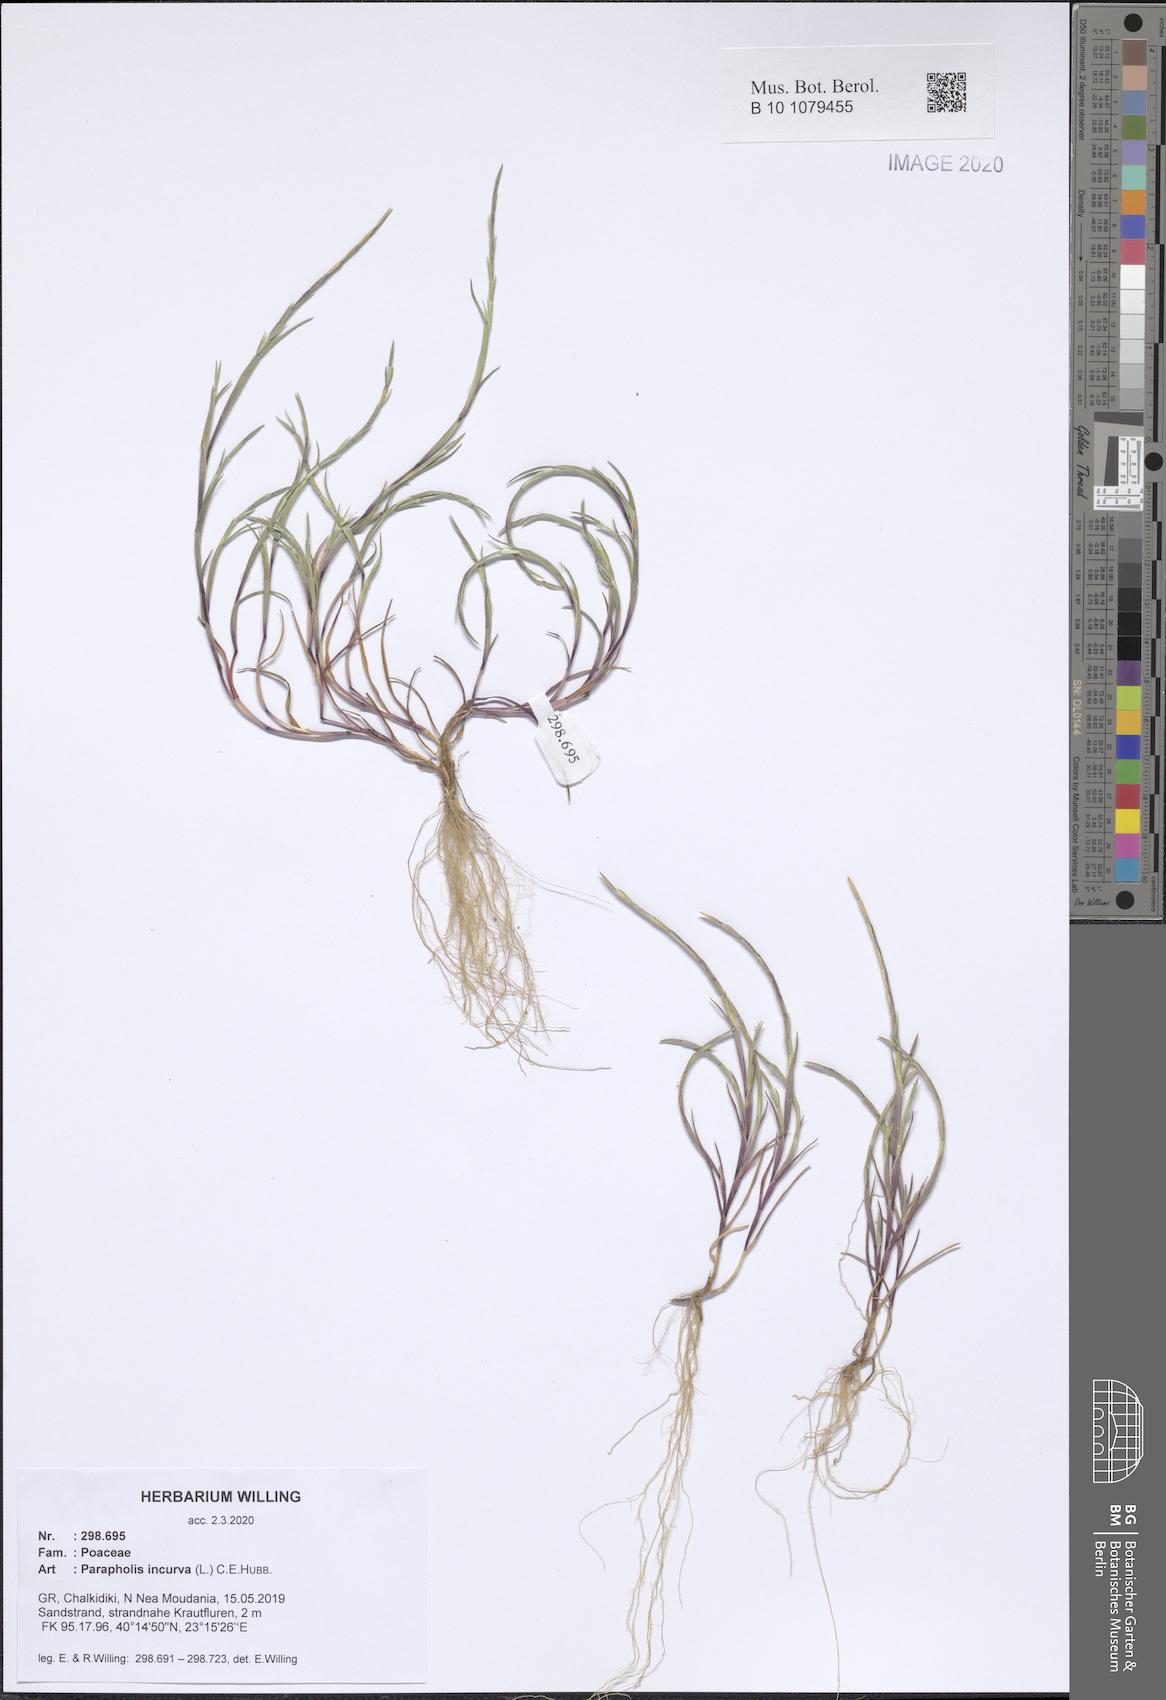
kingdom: Plantae
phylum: Tracheophyta
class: Liliopsida
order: Poales
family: Poaceae
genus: Parapholis
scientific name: Parapholis incurva
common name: Curved sicklegrass
